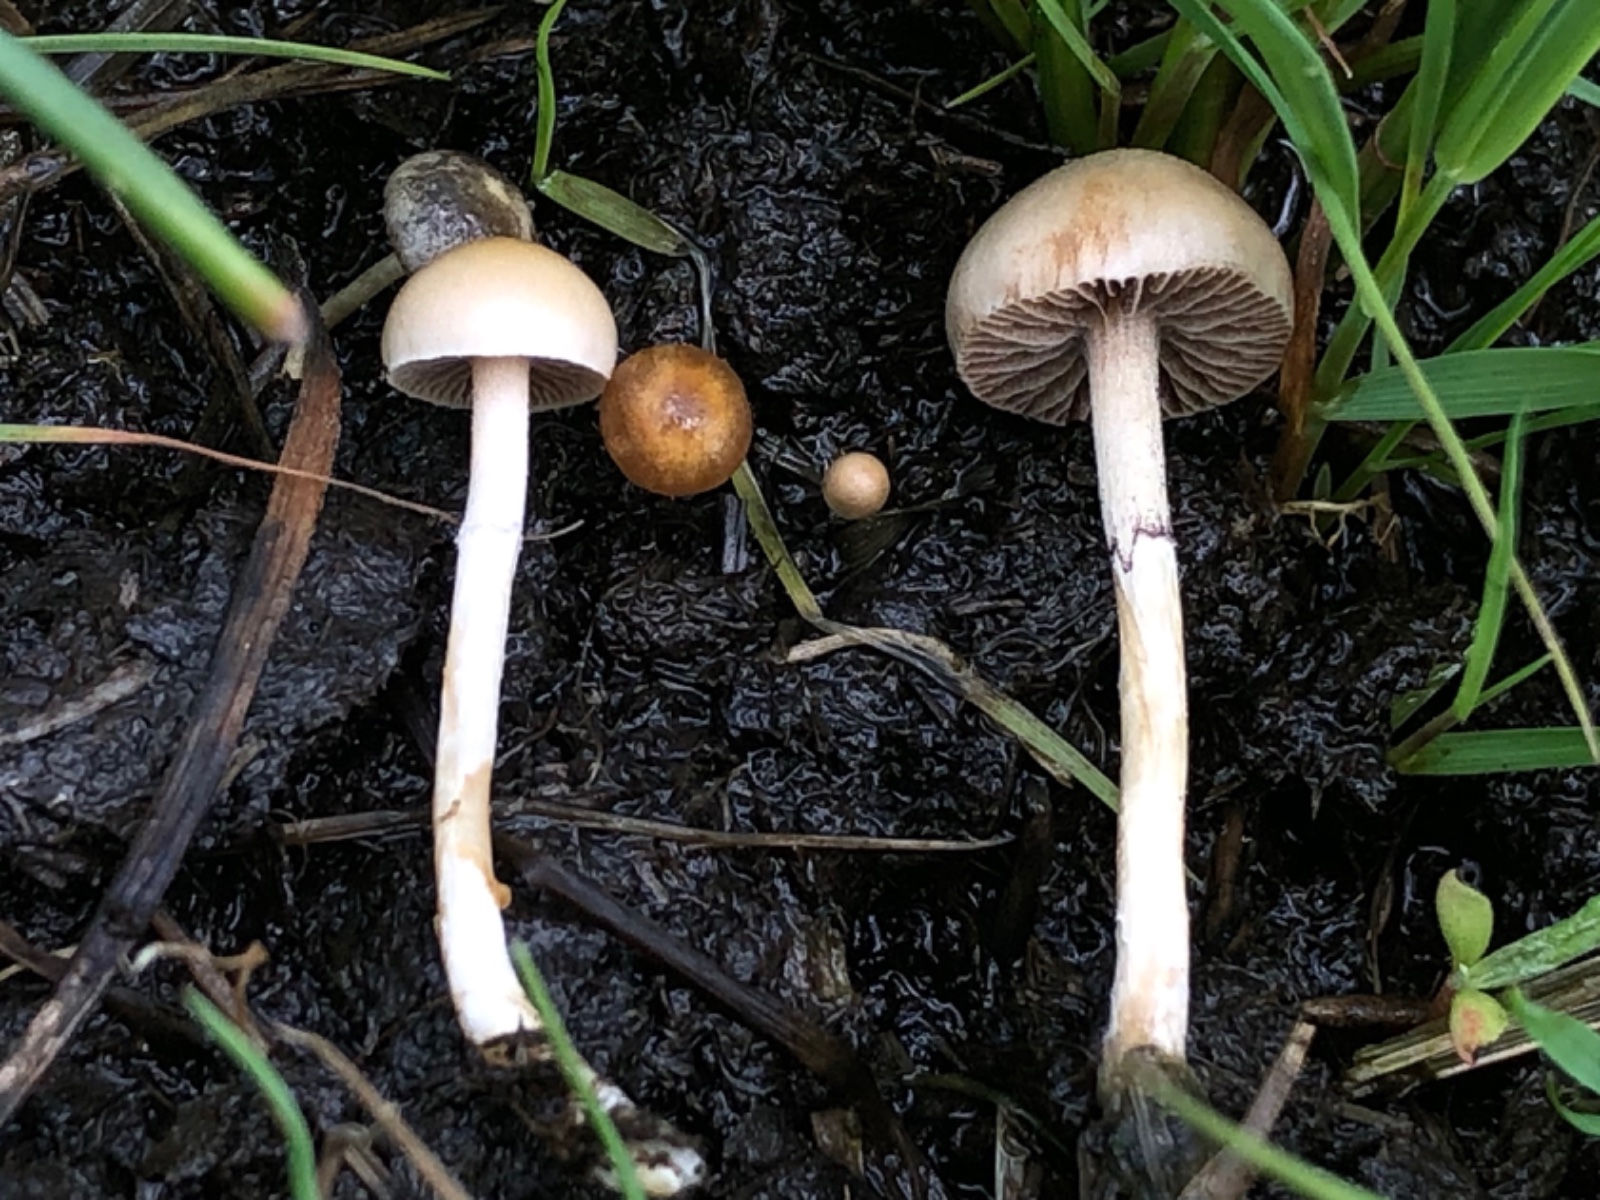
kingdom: Fungi
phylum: Basidiomycota
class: Agaricomycetes
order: Agaricales
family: Strophariaceae
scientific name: Strophariaceae
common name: bredbladfamilien
